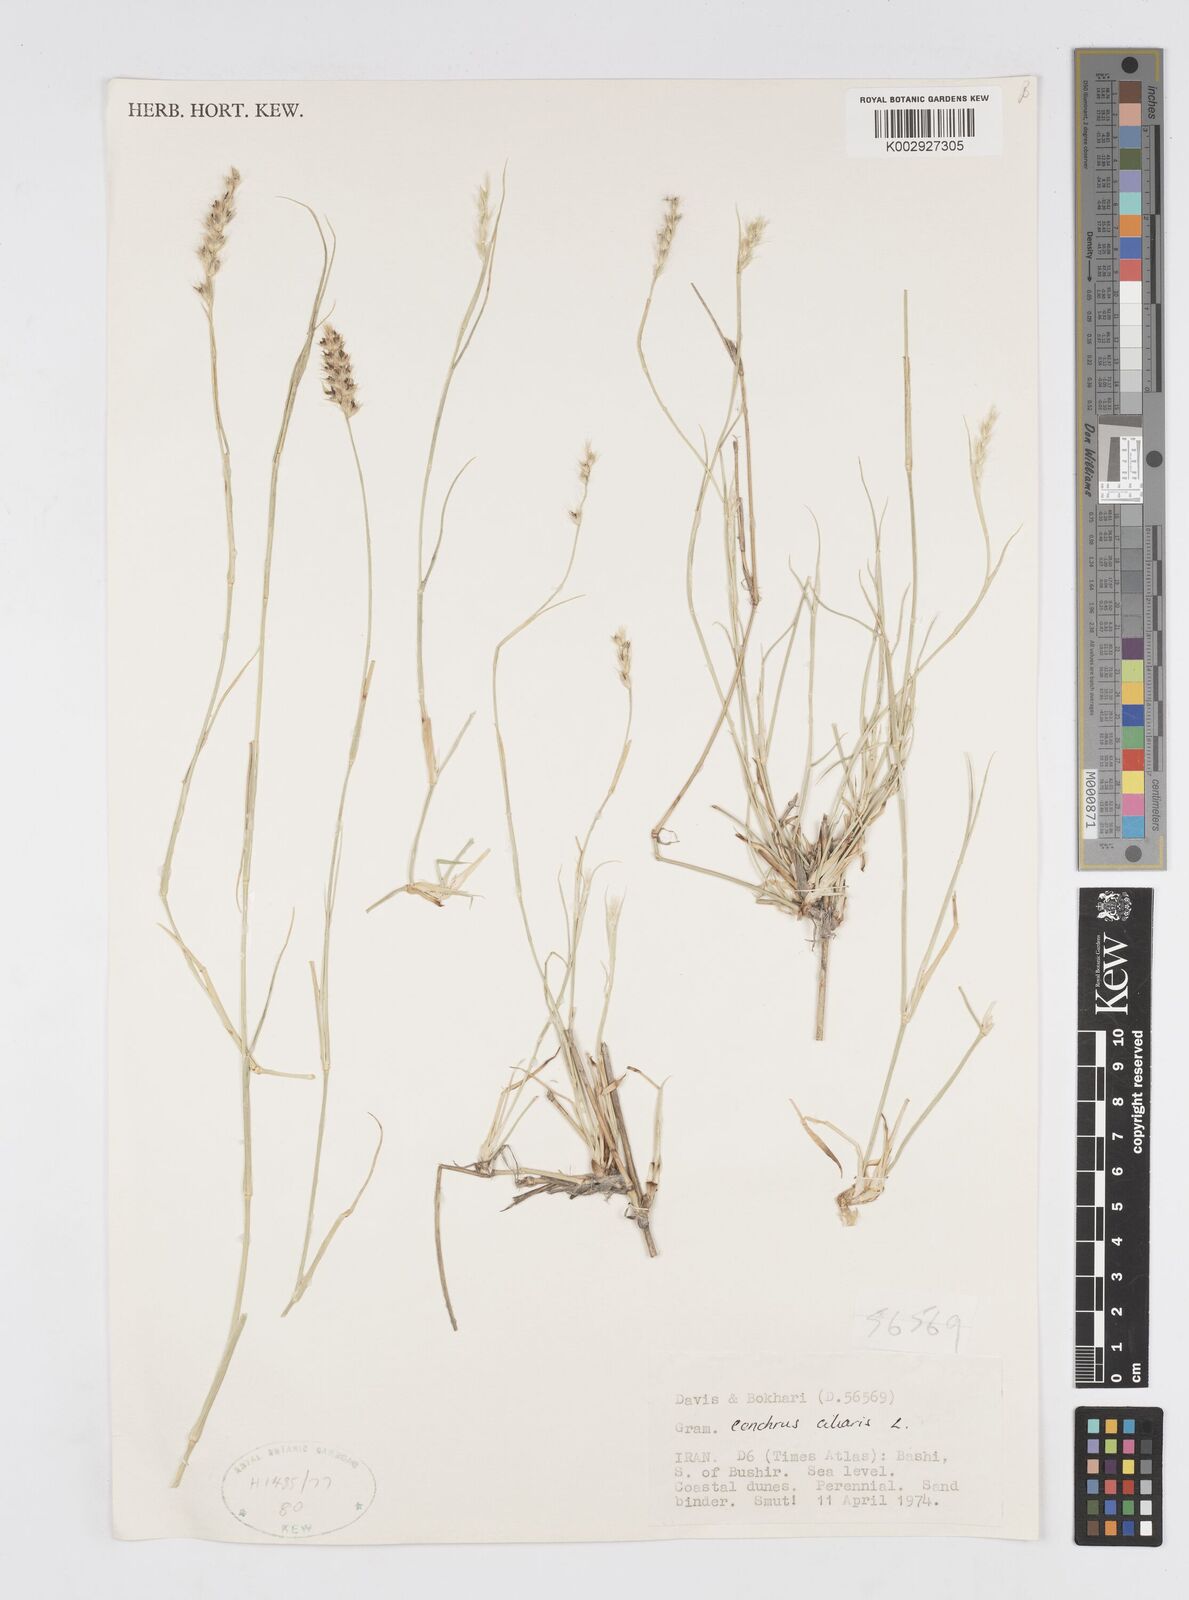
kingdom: Plantae
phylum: Tracheophyta
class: Liliopsida
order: Poales
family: Poaceae
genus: Cenchrus
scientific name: Cenchrus ciliaris
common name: Buffelgrass
